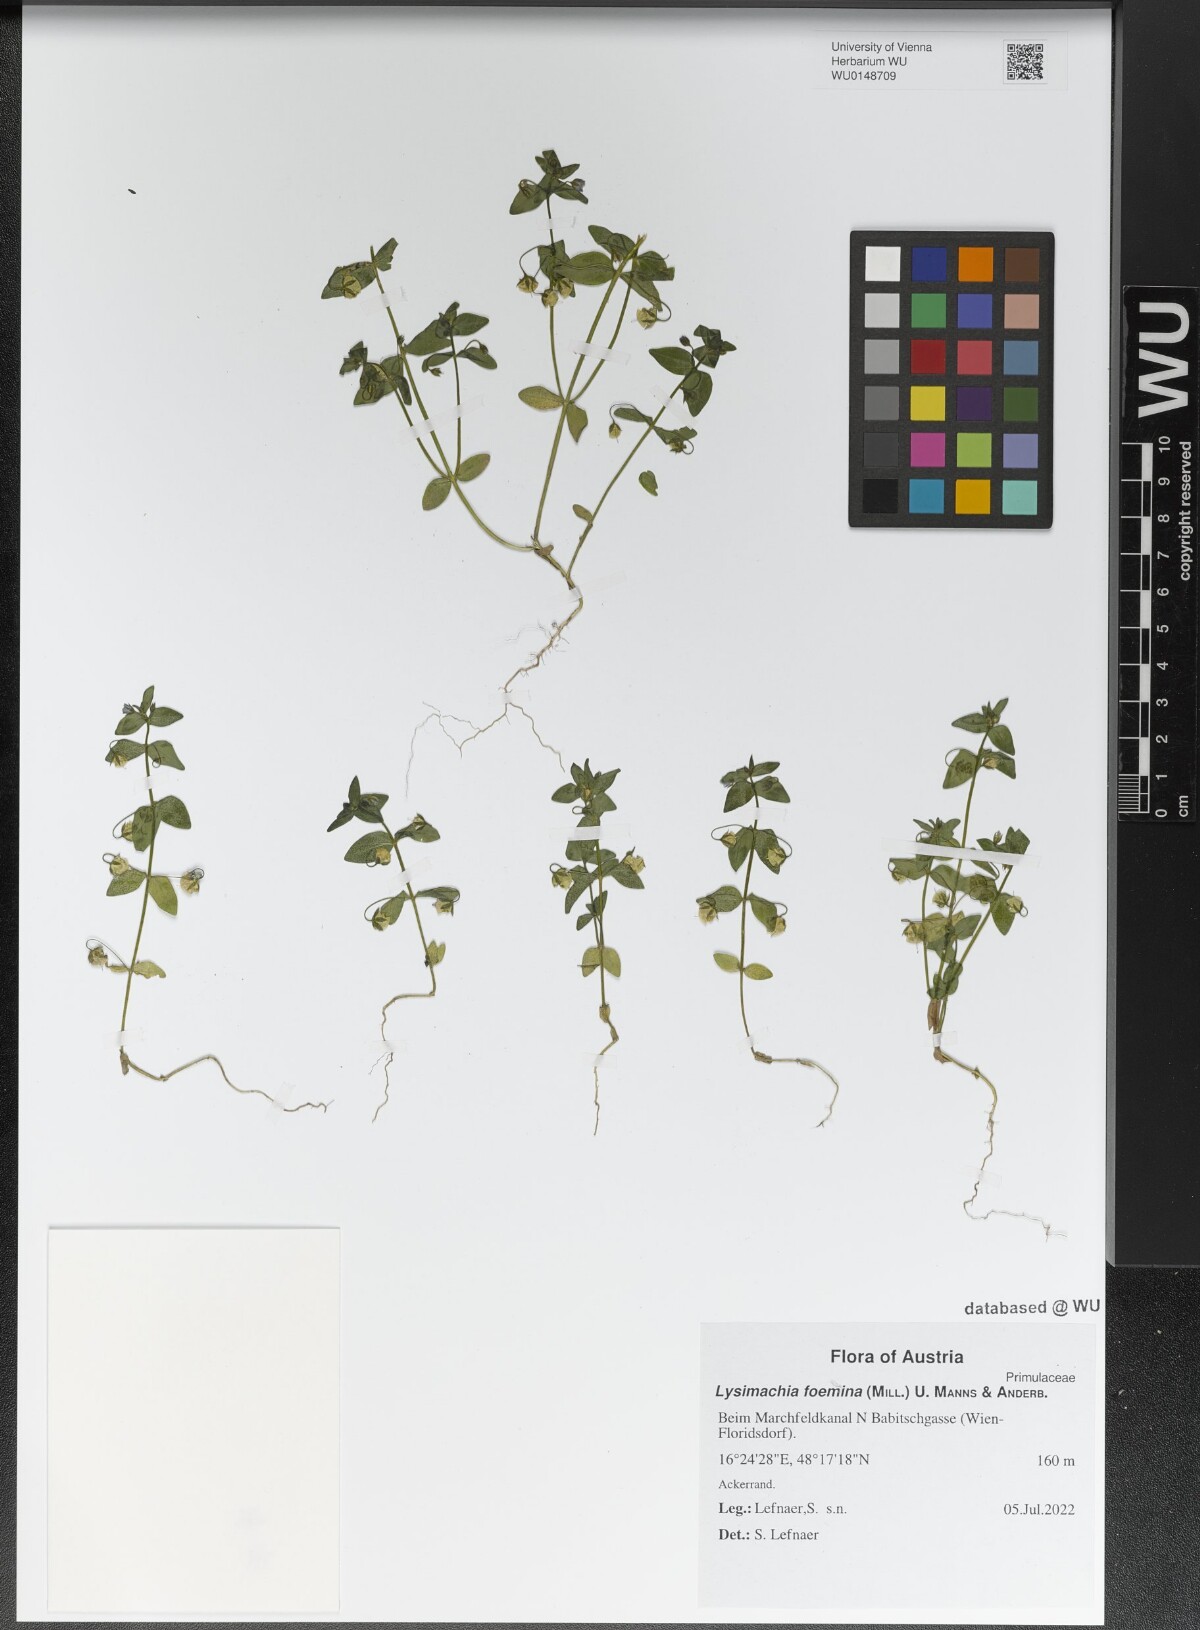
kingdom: Plantae
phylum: Tracheophyta
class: Magnoliopsida
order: Ericales
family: Primulaceae
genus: Lysimachia
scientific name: Lysimachia foemina
